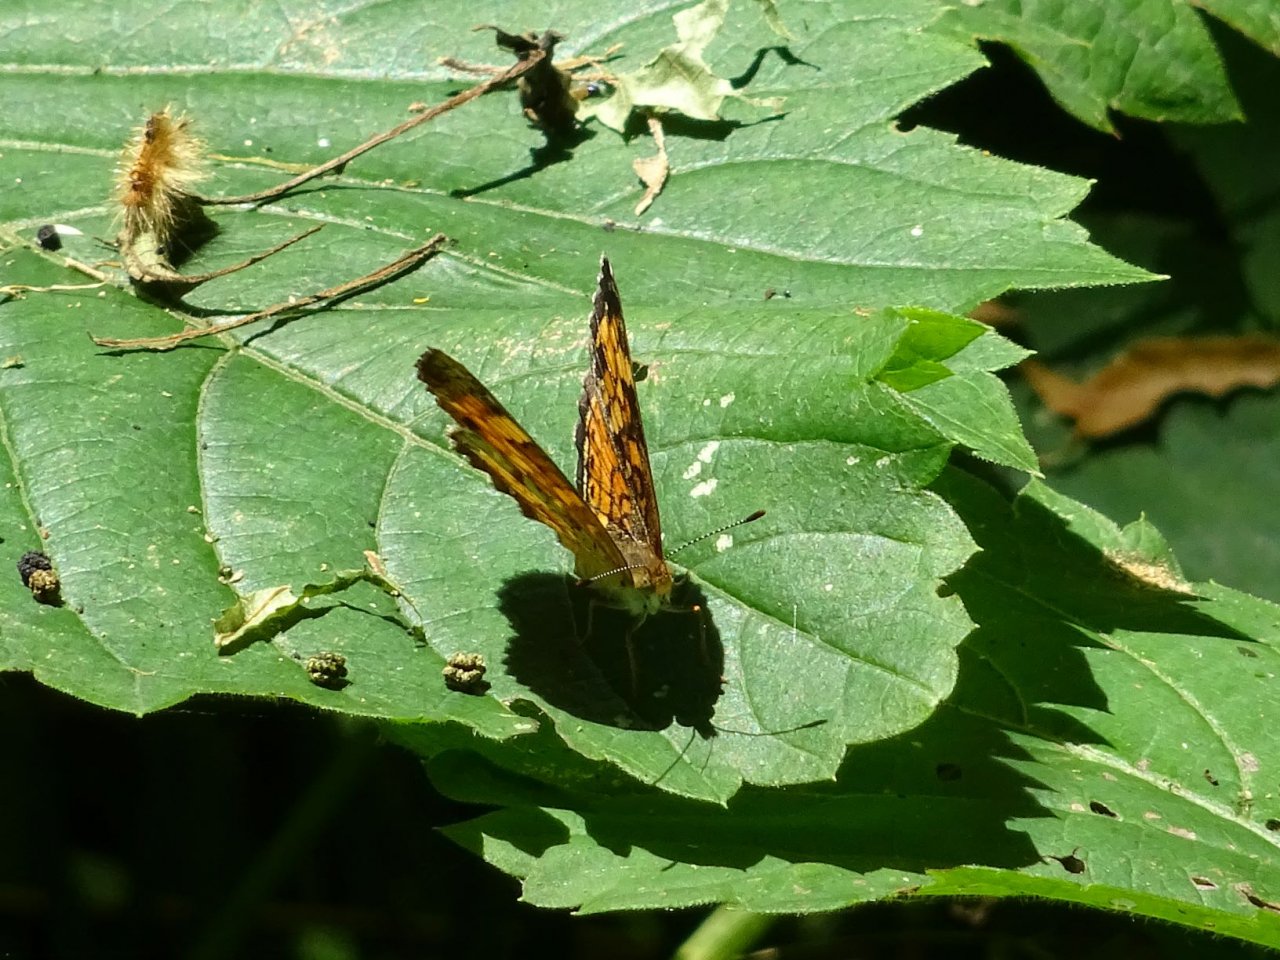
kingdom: Animalia
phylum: Arthropoda
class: Insecta
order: Lepidoptera
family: Nymphalidae
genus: Phyciodes
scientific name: Phyciodes tharos
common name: Pearl Crescent
